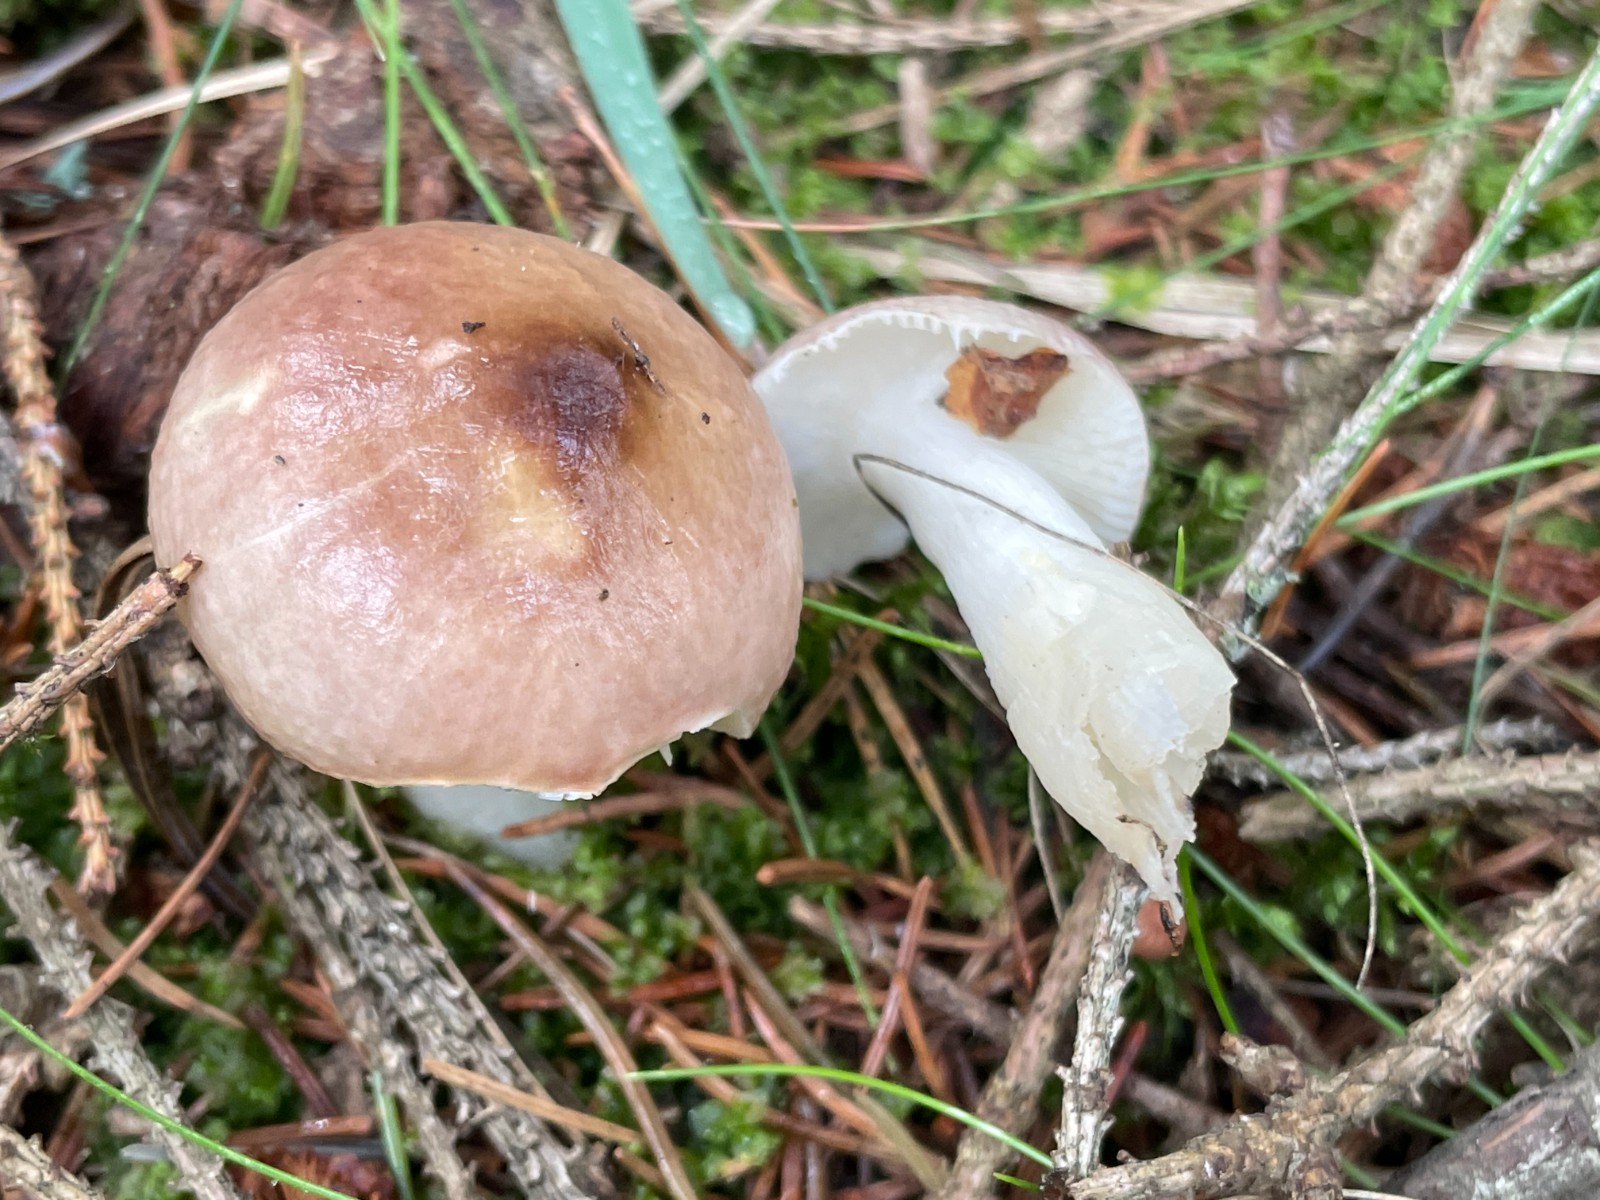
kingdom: Fungi
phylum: Basidiomycota
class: Agaricomycetes
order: Russulales
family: Russulaceae
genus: Russula
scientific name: Russula nauseosa
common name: spinkel skørhat
